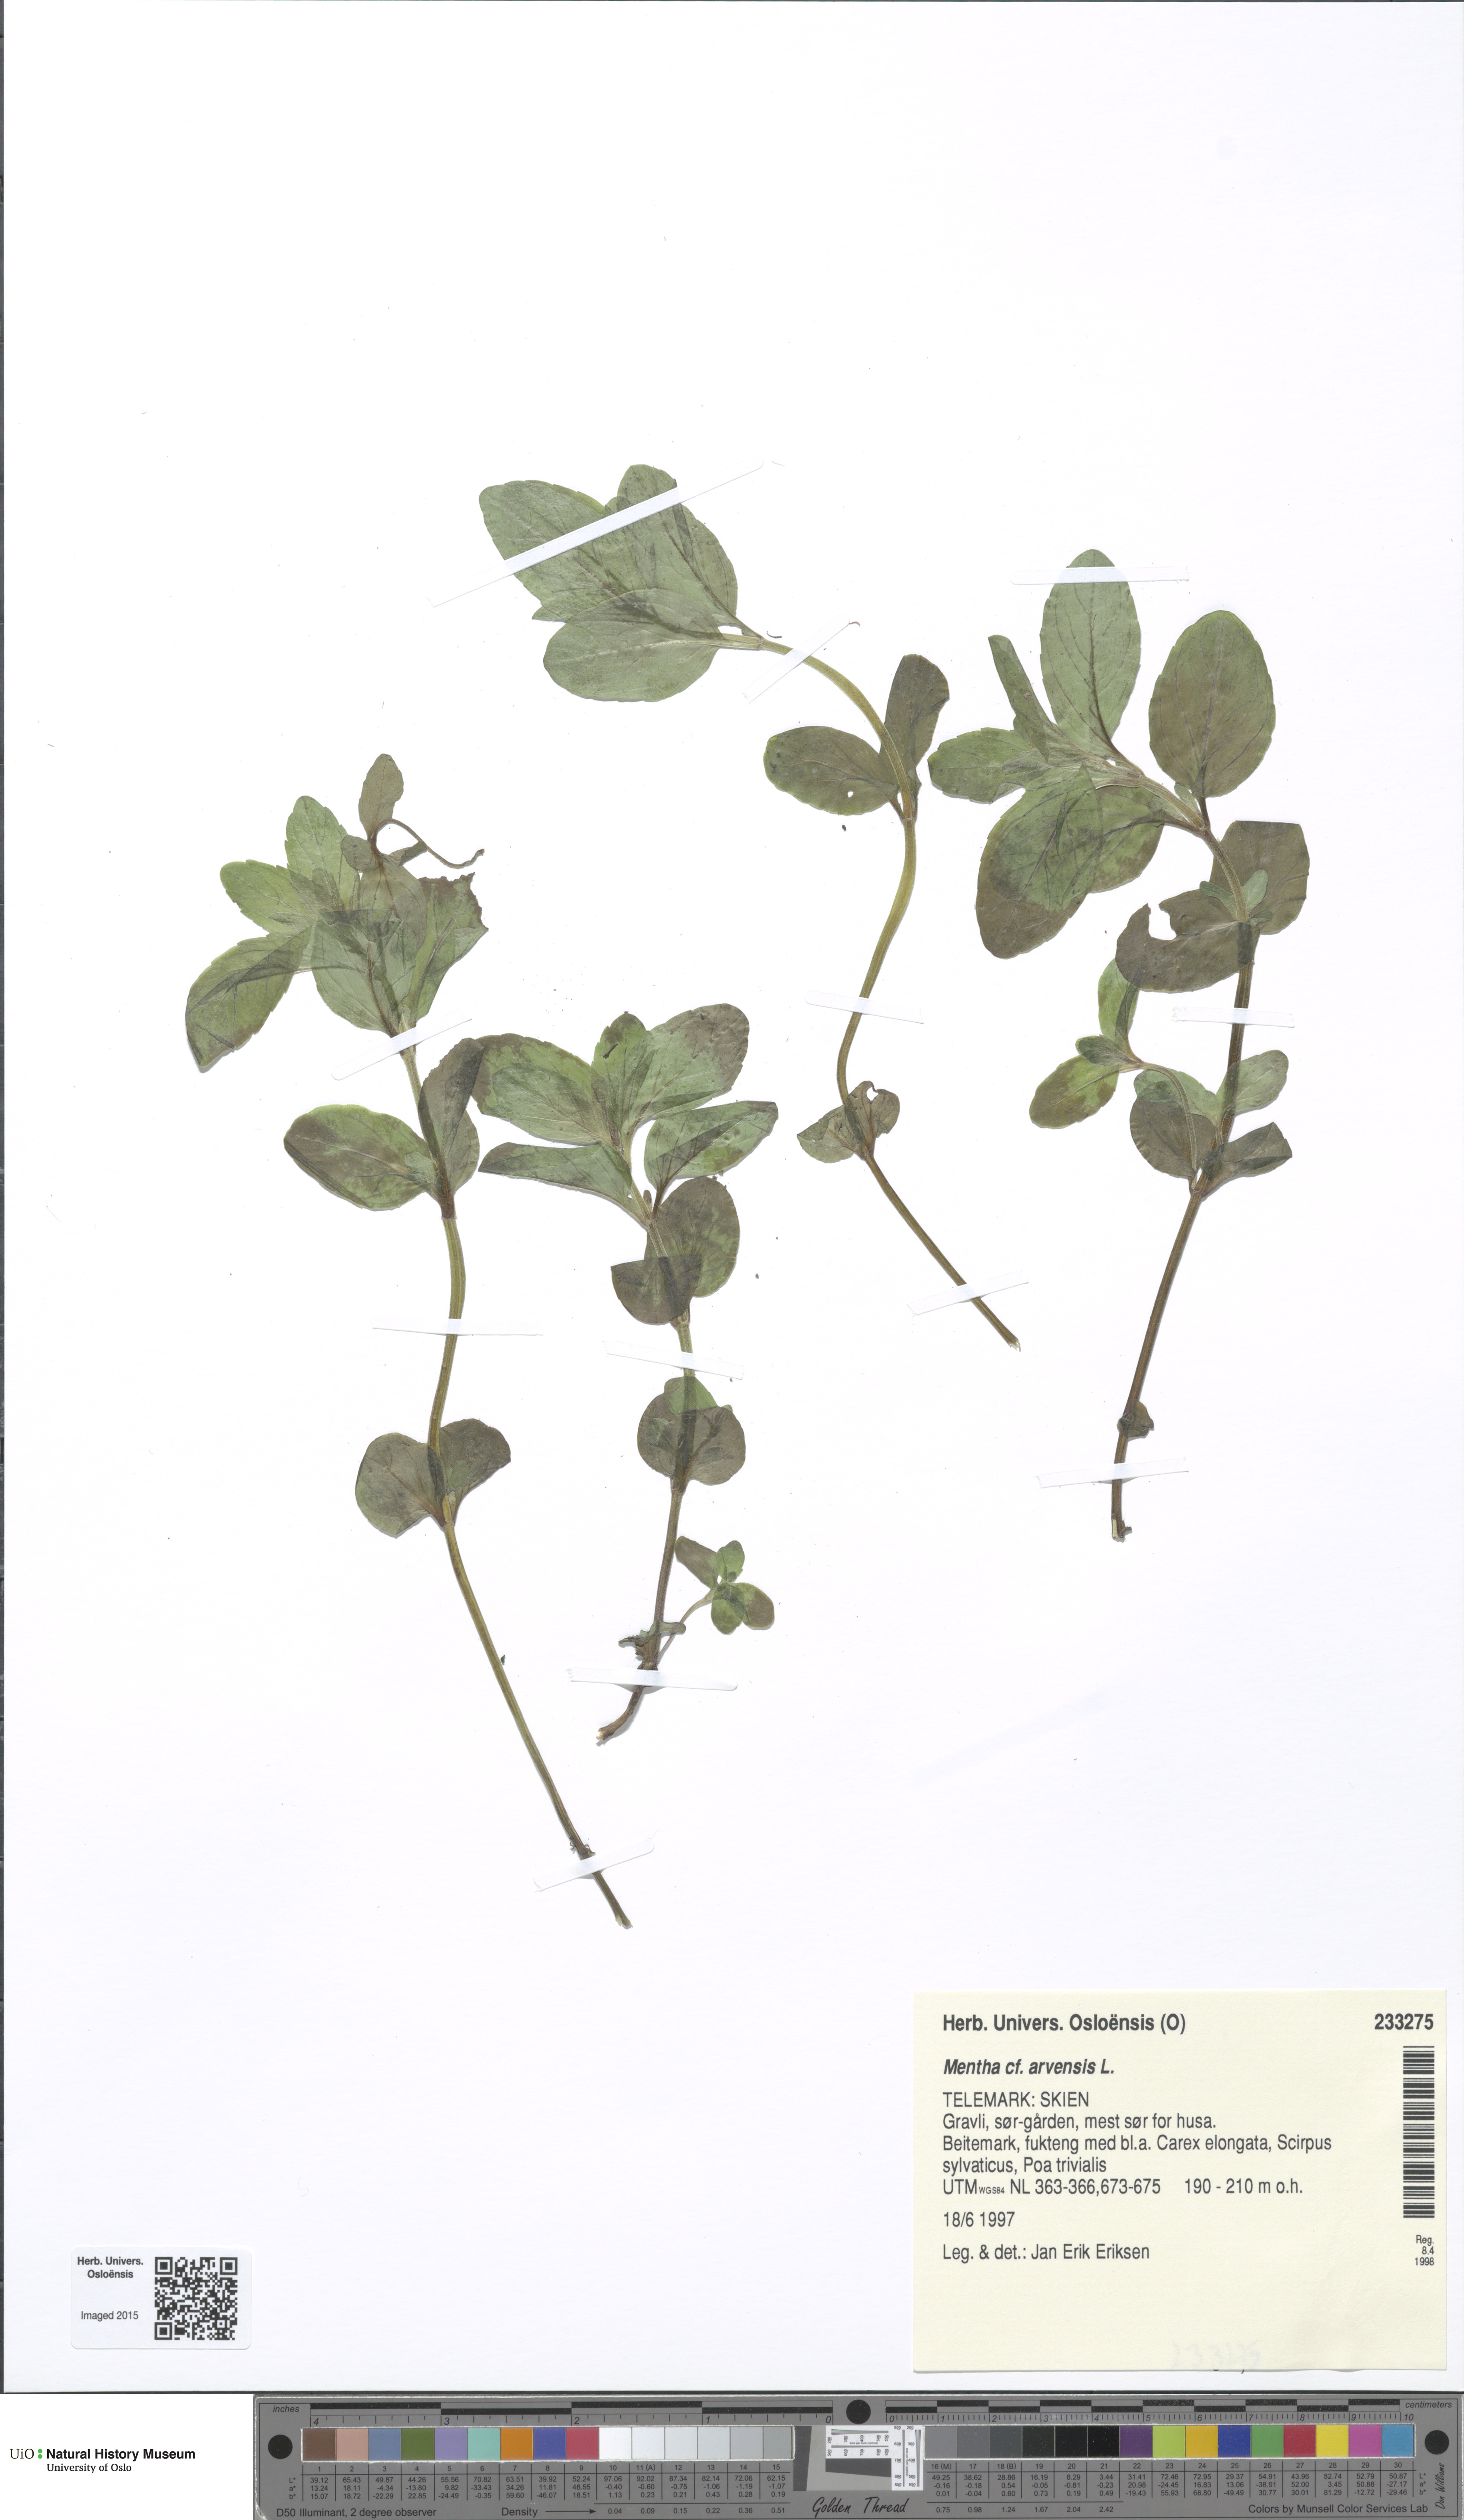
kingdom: Plantae
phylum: Tracheophyta
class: Magnoliopsida
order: Lamiales
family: Lamiaceae
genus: Mentha
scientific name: Mentha arvensis
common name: Corn mint
